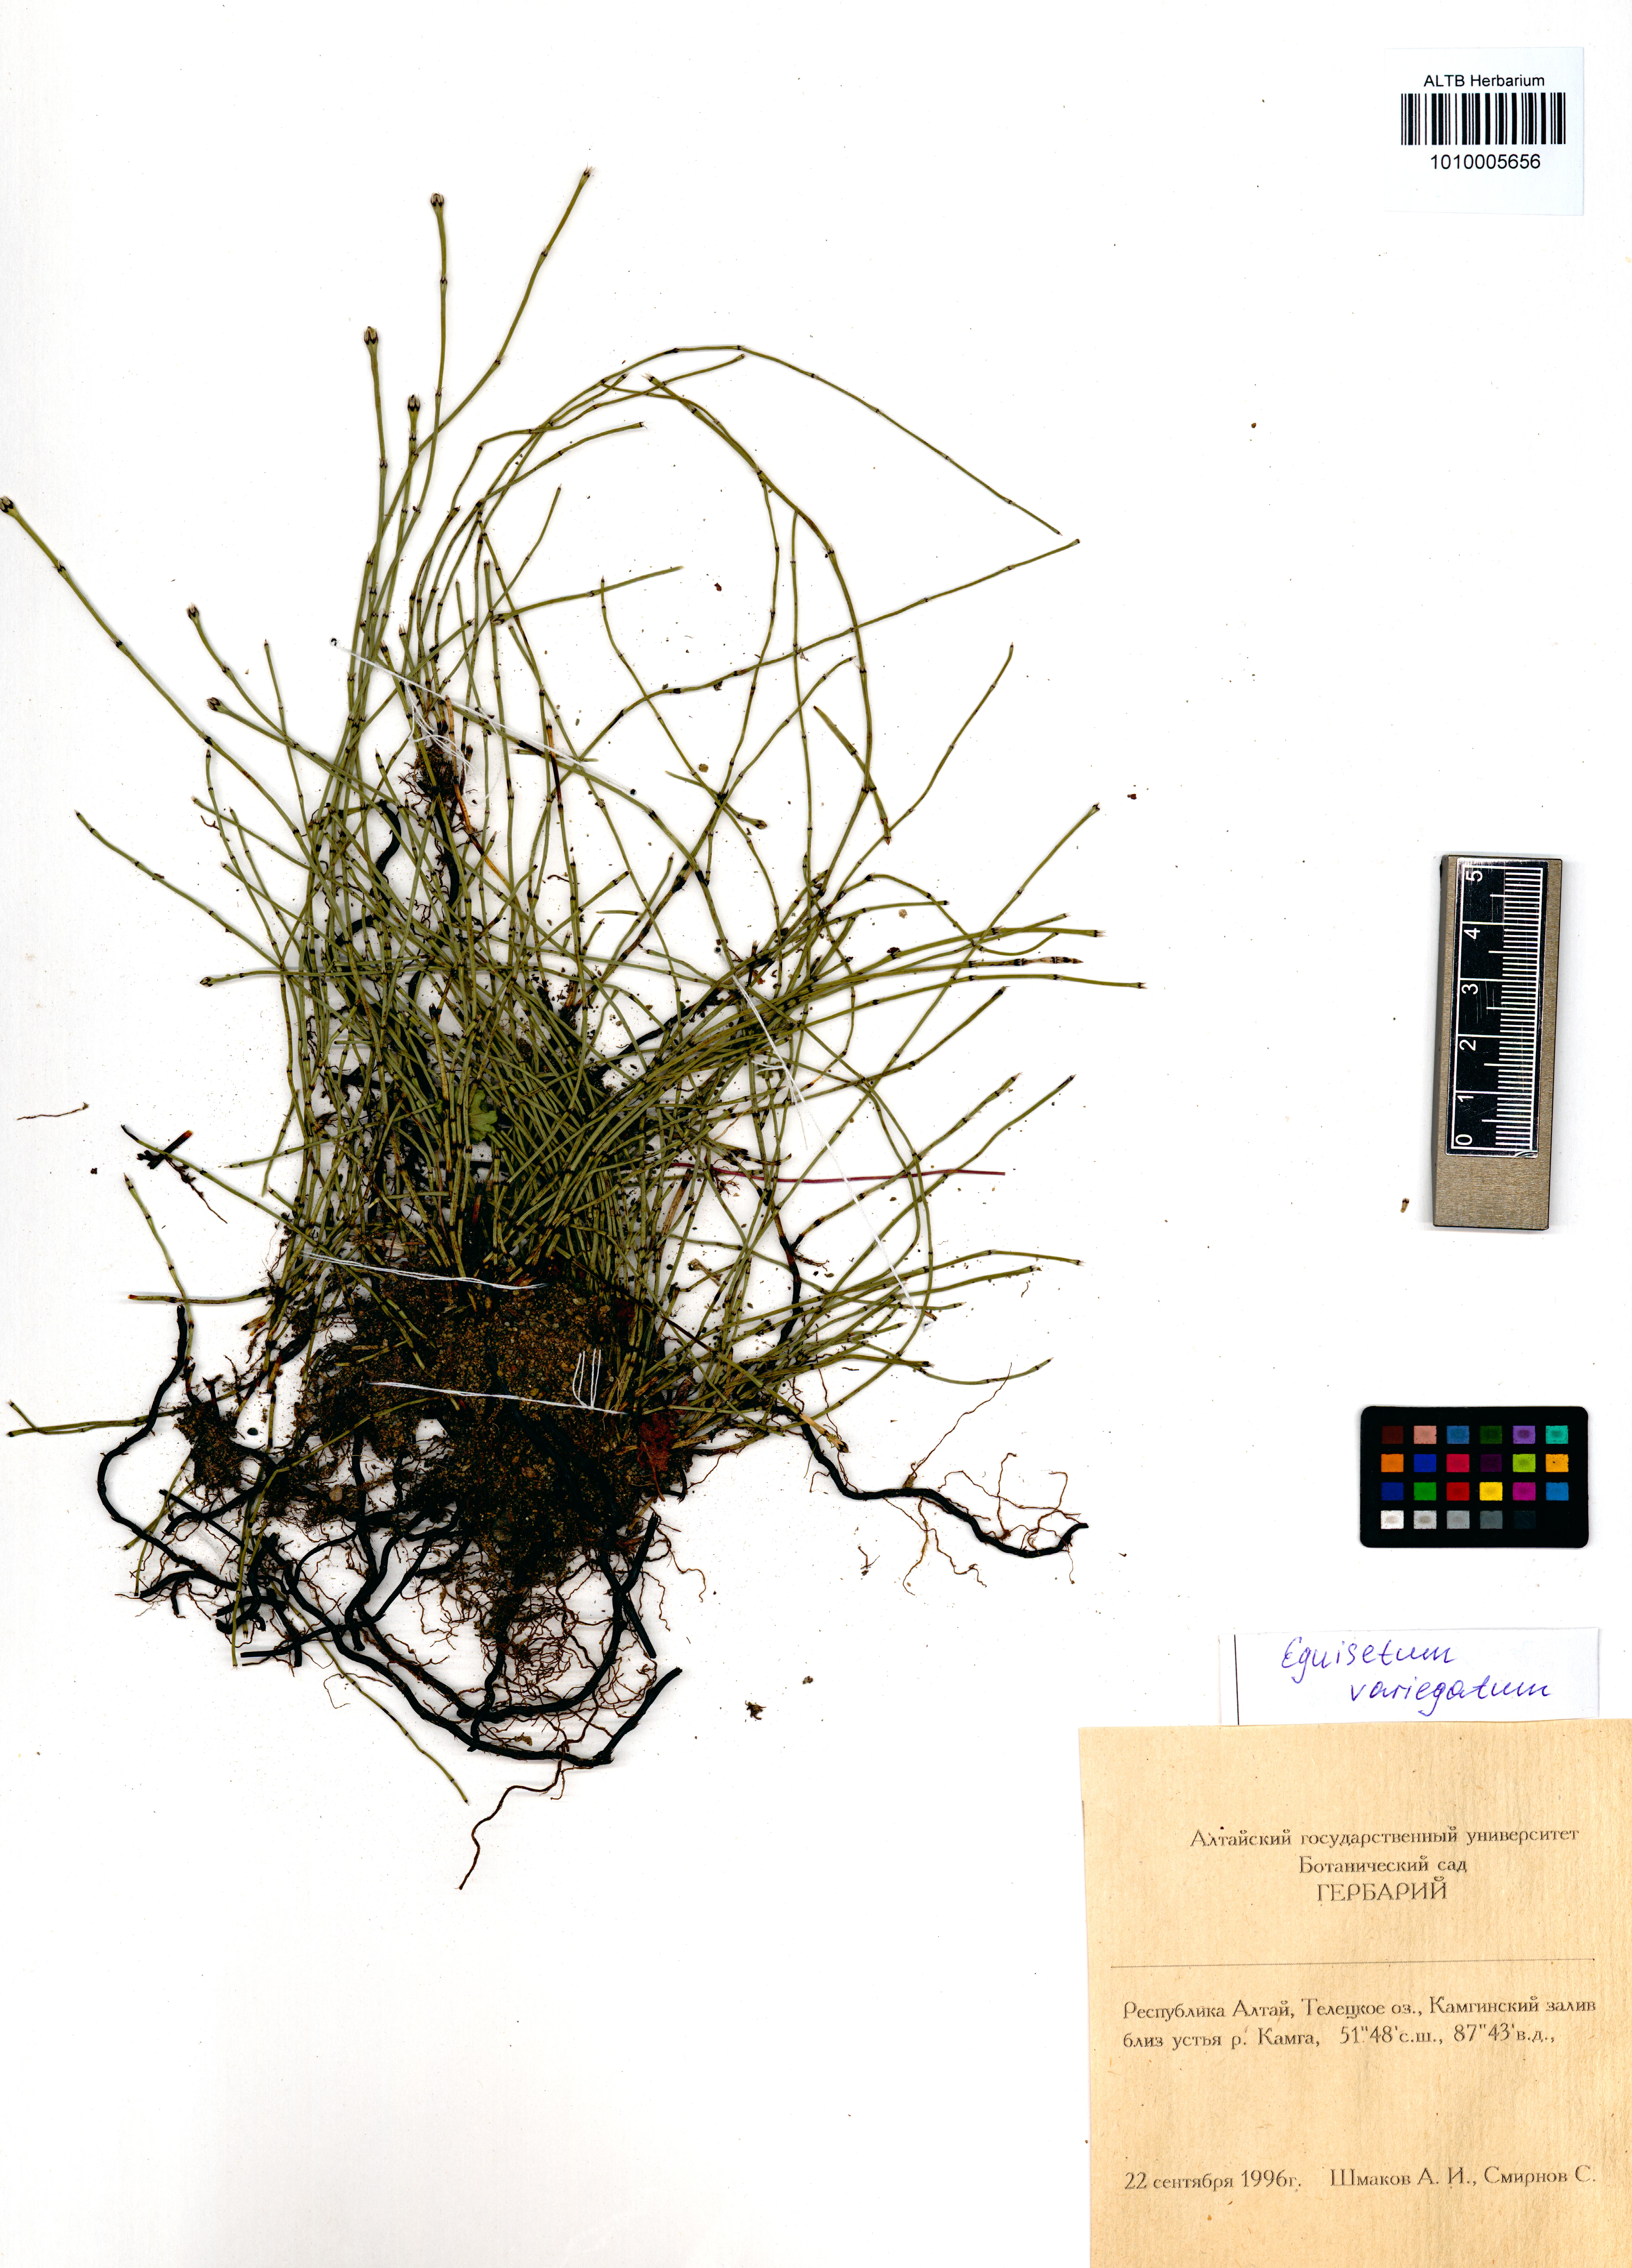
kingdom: Plantae
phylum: Tracheophyta
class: Polypodiopsida
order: Equisetales
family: Equisetaceae
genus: Equisetum
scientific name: Equisetum variegatum
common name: Variegated horsetail
